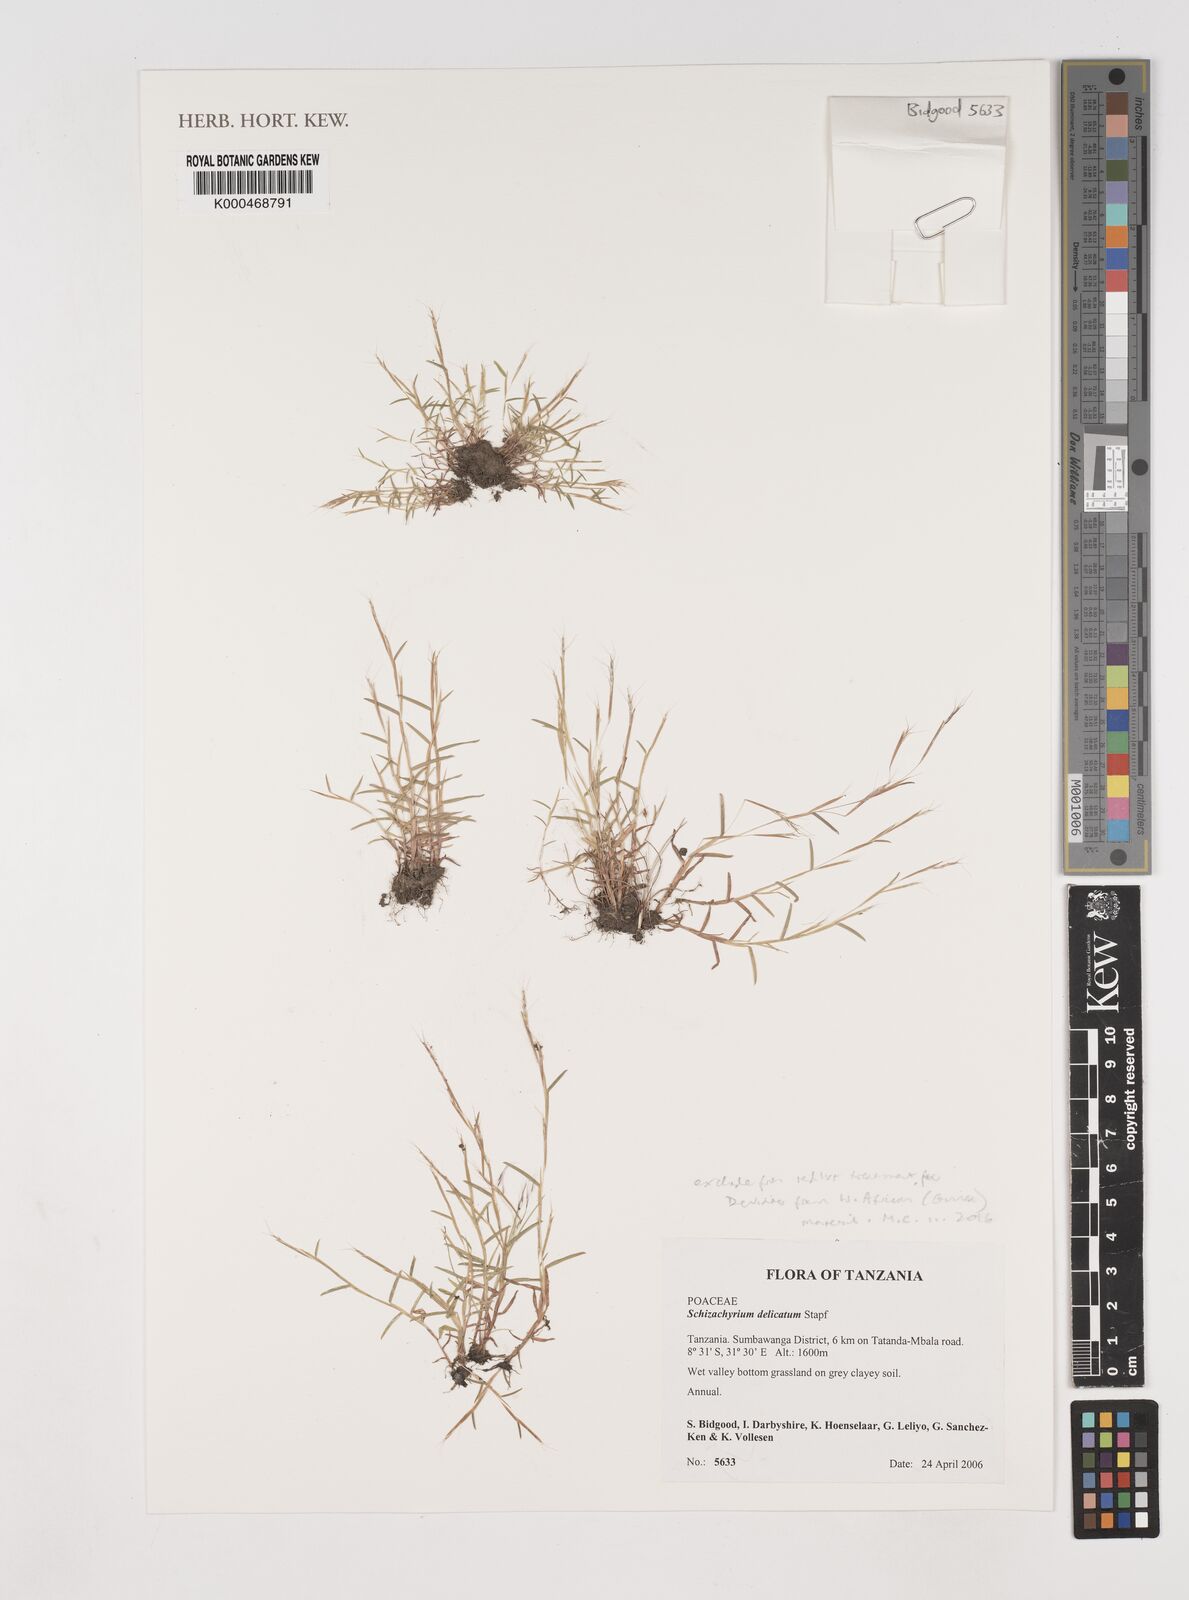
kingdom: Plantae
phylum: Tracheophyta
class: Liliopsida
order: Poales
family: Poaceae
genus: Schizachyrium
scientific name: Schizachyrium delicatum
